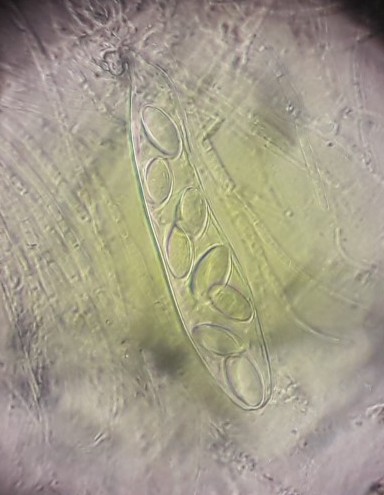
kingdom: Fungi
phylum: Ascomycota
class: Pezizomycetes
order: Pezizales
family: Ascobolaceae
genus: Ascobolus
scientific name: Ascobolus furfuraceus
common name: almindelig prikbæger
